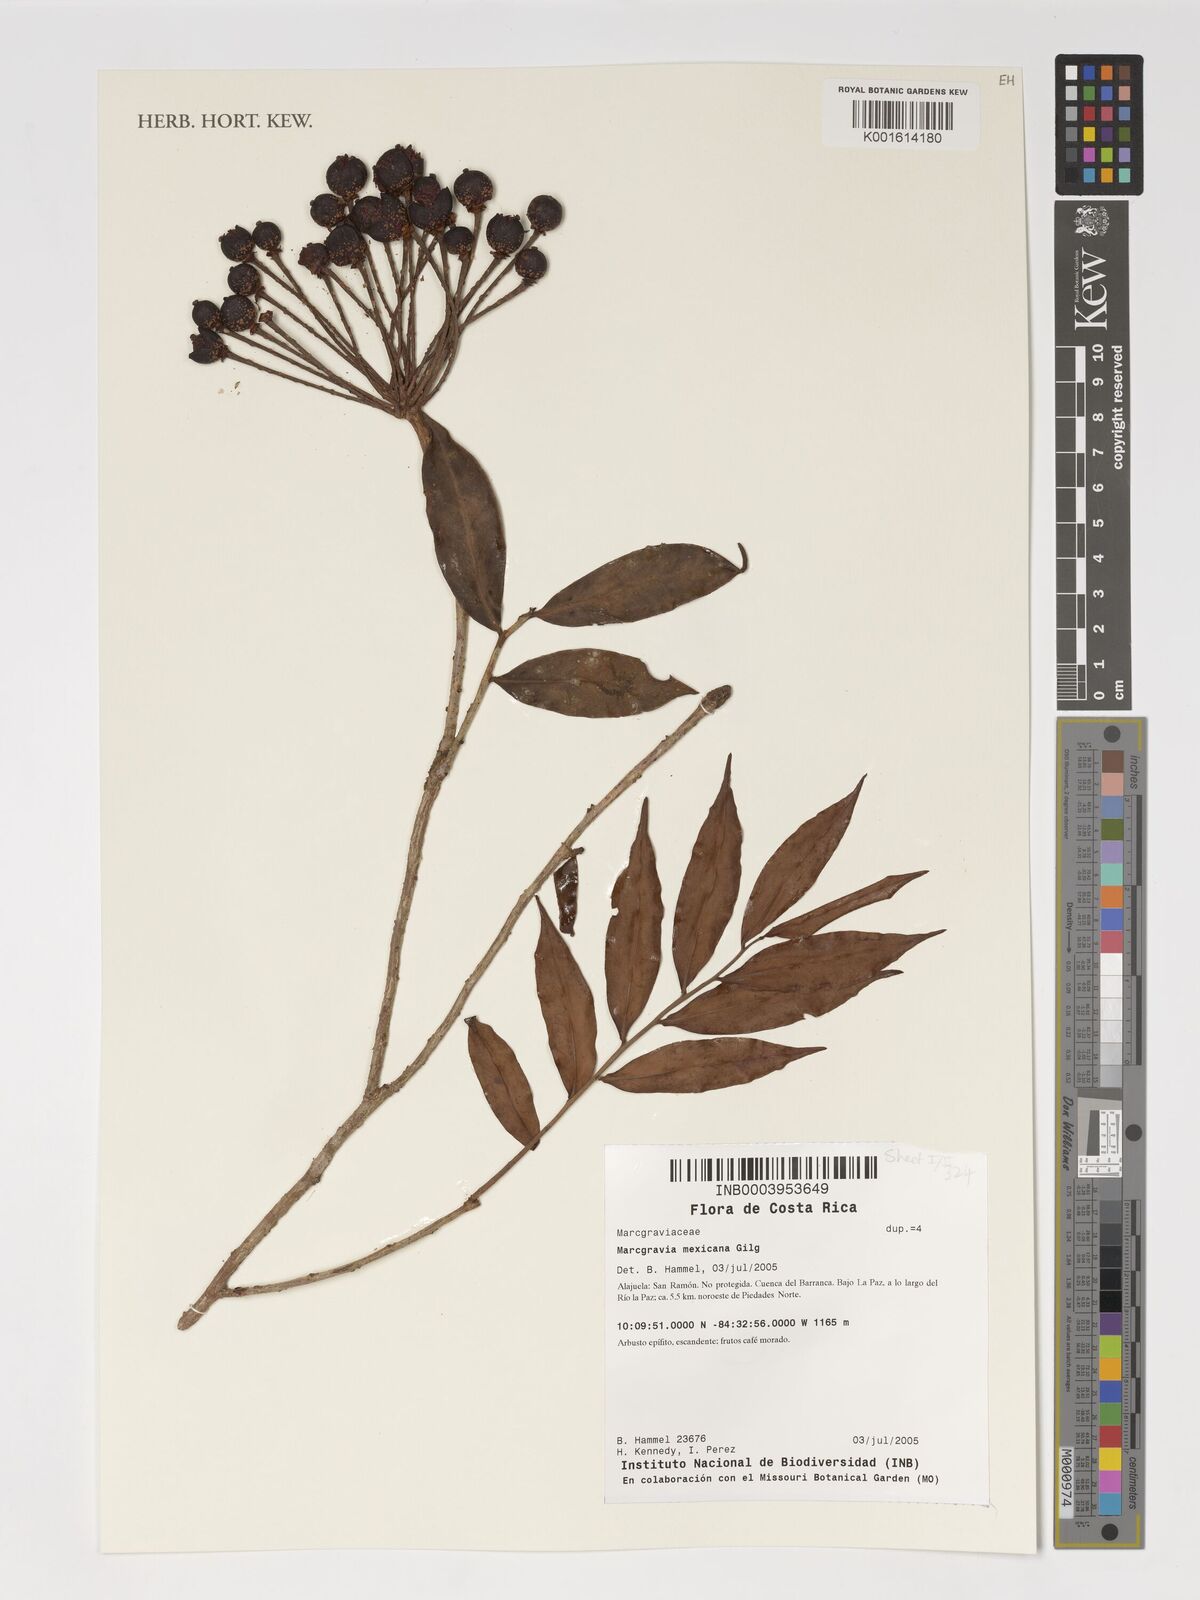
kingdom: Plantae
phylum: Tracheophyta
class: Magnoliopsida
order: Ericales
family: Marcgraviaceae
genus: Marcgravia
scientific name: Marcgravia mexicana
